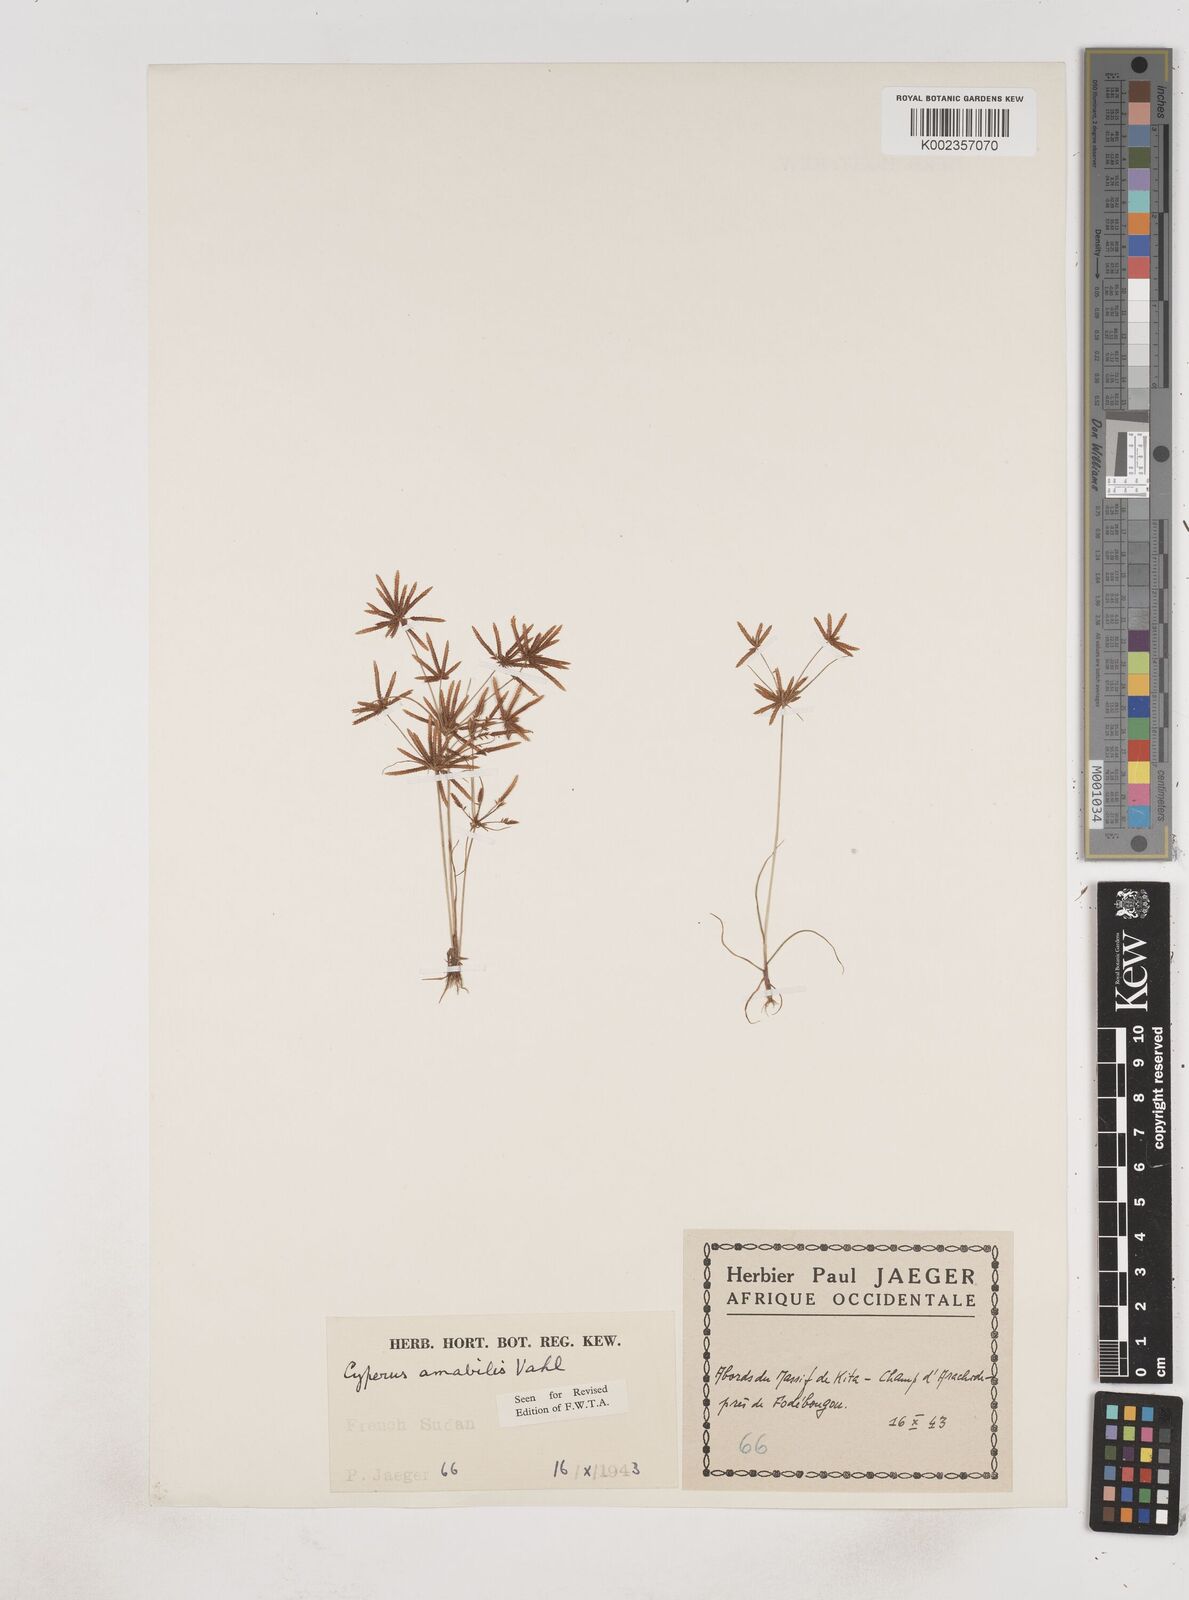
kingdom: Plantae
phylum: Tracheophyta
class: Liliopsida
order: Poales
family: Cyperaceae
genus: Cyperus
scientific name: Cyperus amabilis
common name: Foothill flat sedge
